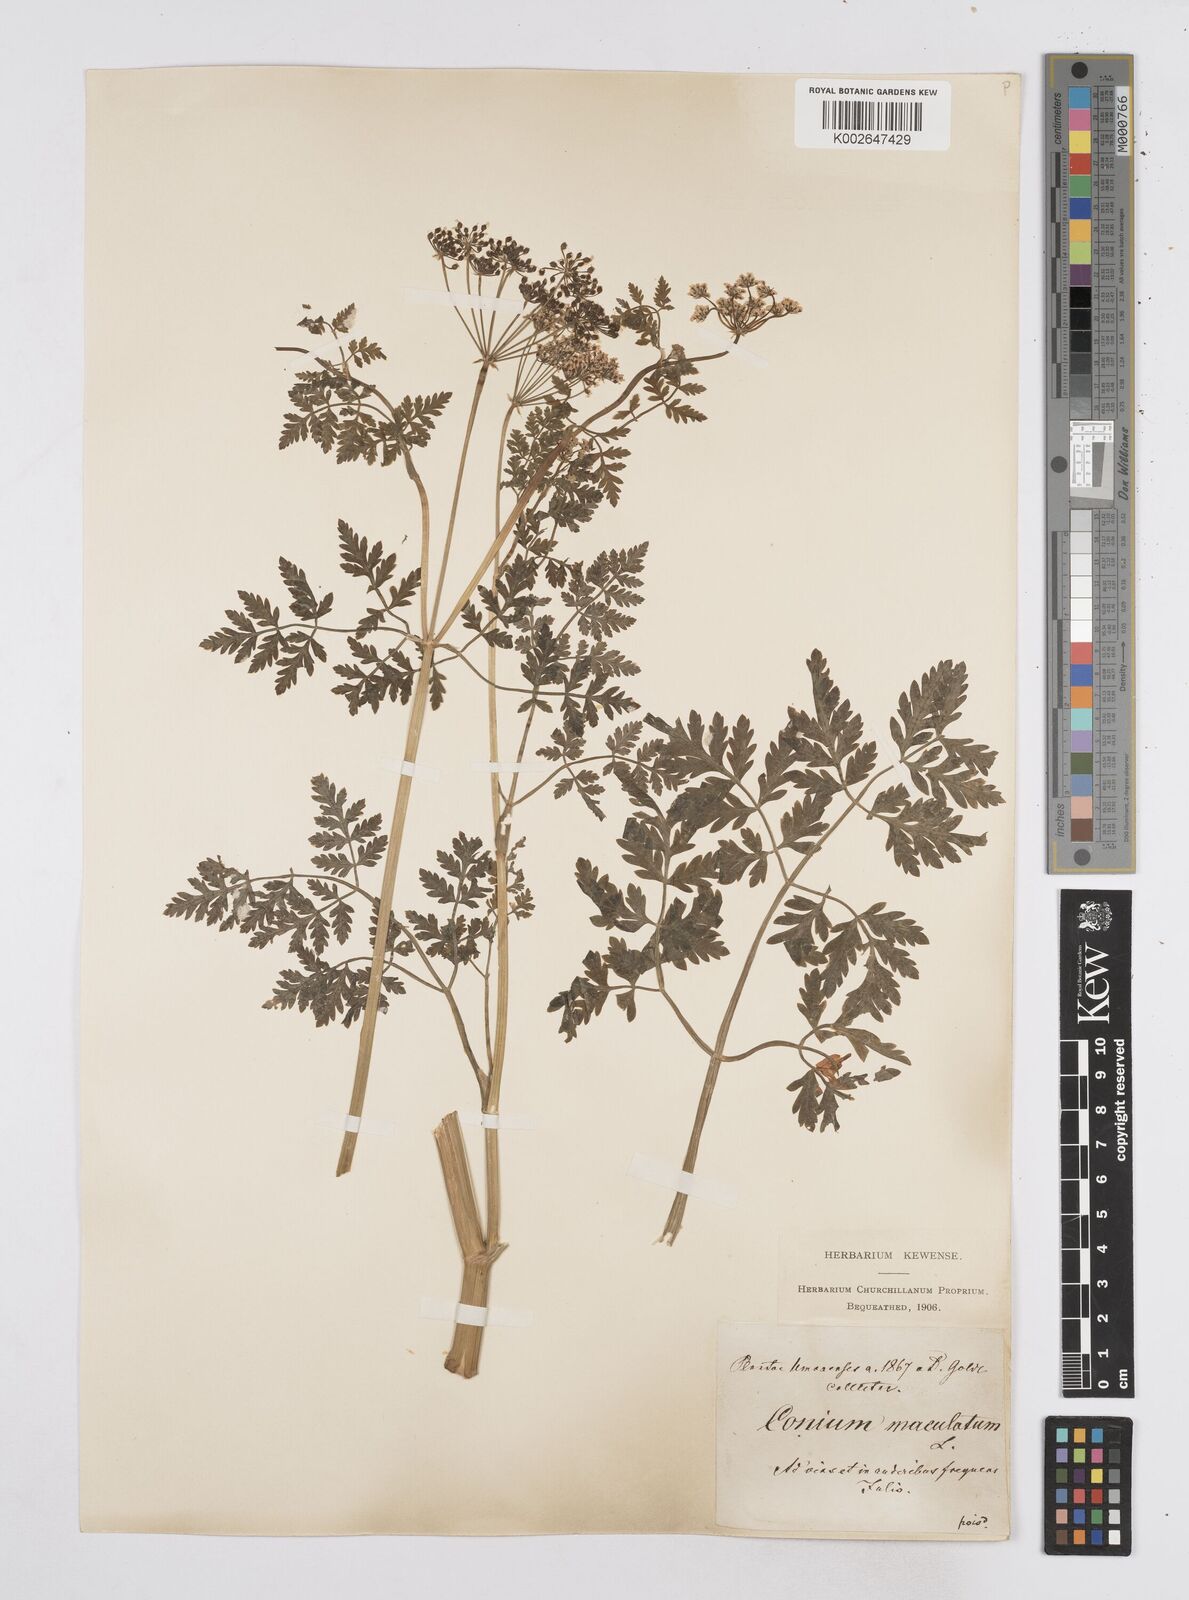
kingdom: Plantae
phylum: Tracheophyta
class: Magnoliopsida
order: Apiales
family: Apiaceae
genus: Conium
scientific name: Conium maculatum
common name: Hemlock
